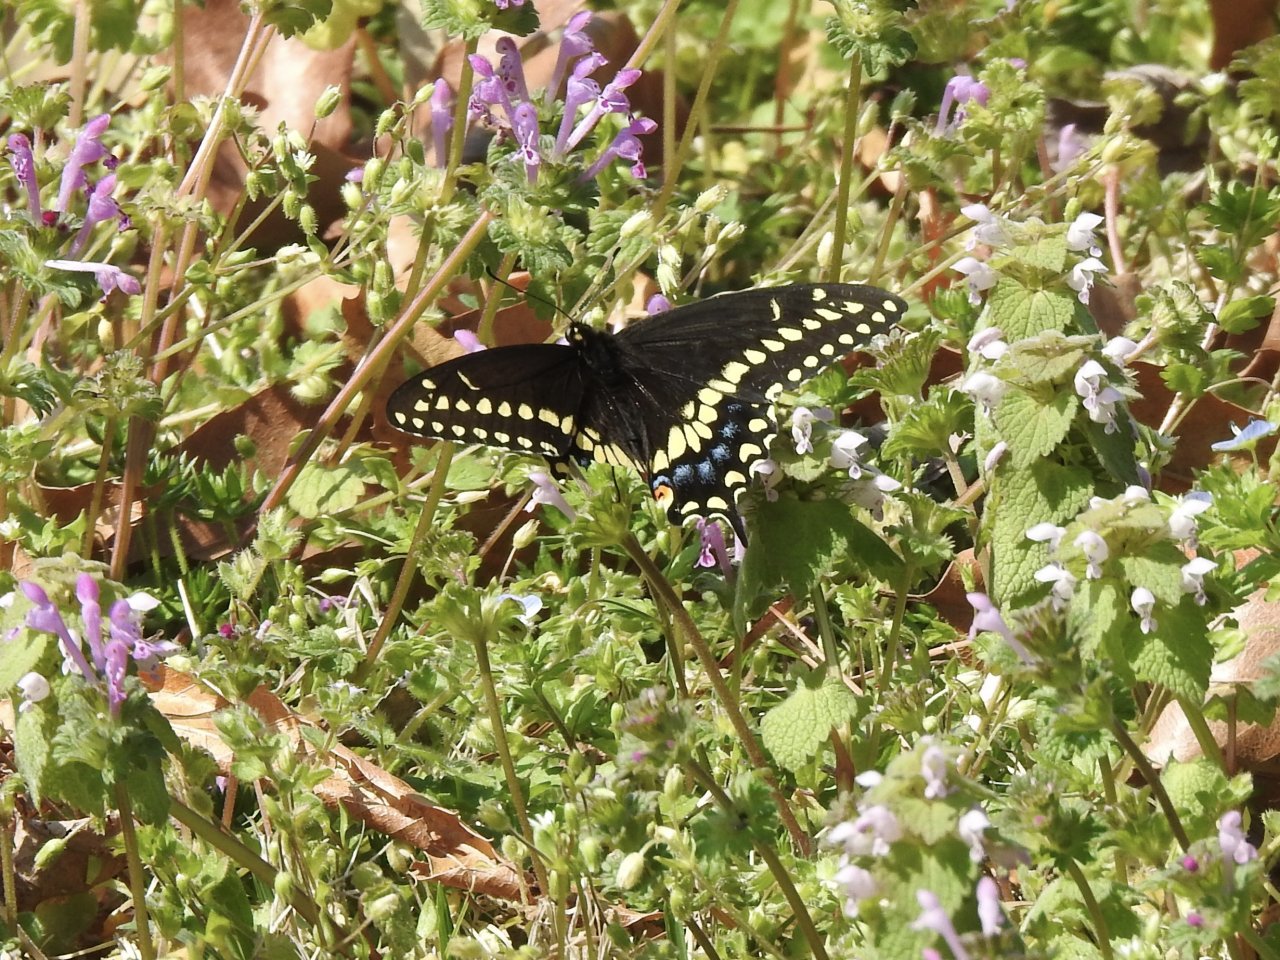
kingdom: Animalia
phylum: Arthropoda
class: Insecta
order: Lepidoptera
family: Papilionidae
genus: Papilio
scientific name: Papilio polyxenes
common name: Black Swallowtail
